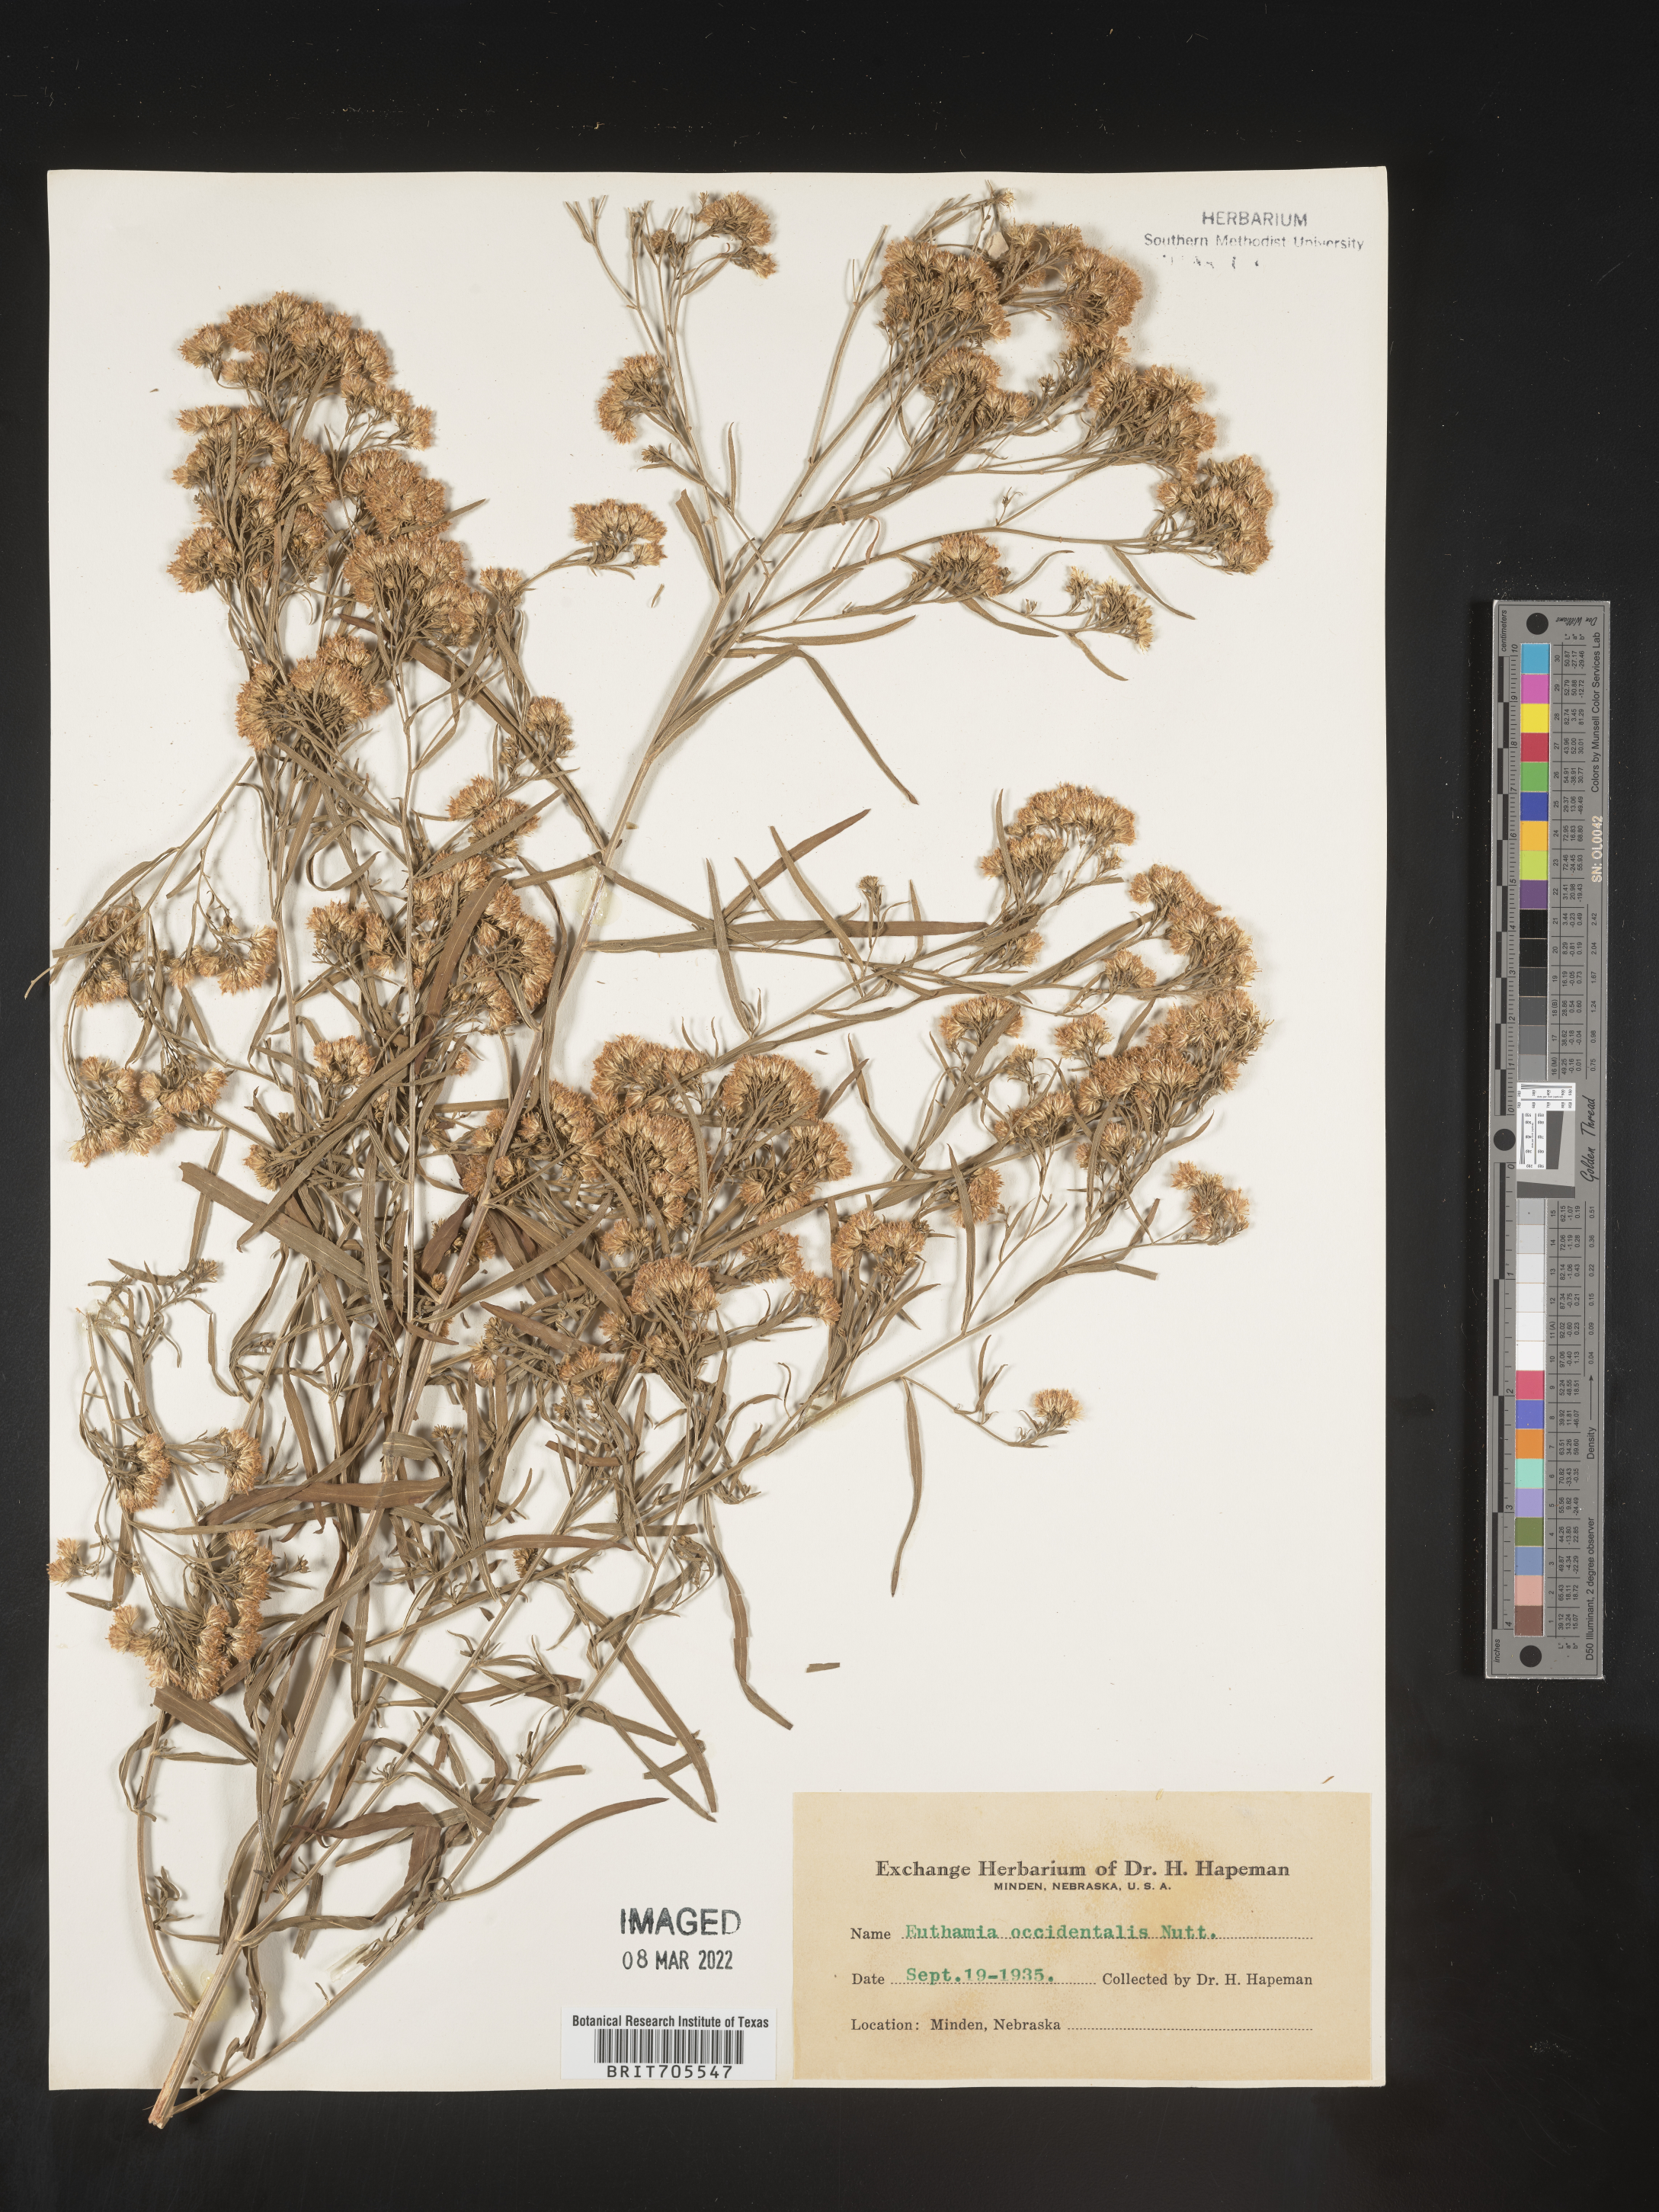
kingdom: Plantae
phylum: Tracheophyta
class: Magnoliopsida
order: Asterales
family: Asteraceae
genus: Euthamia
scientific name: Euthamia occidentalis
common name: Western goldentop
